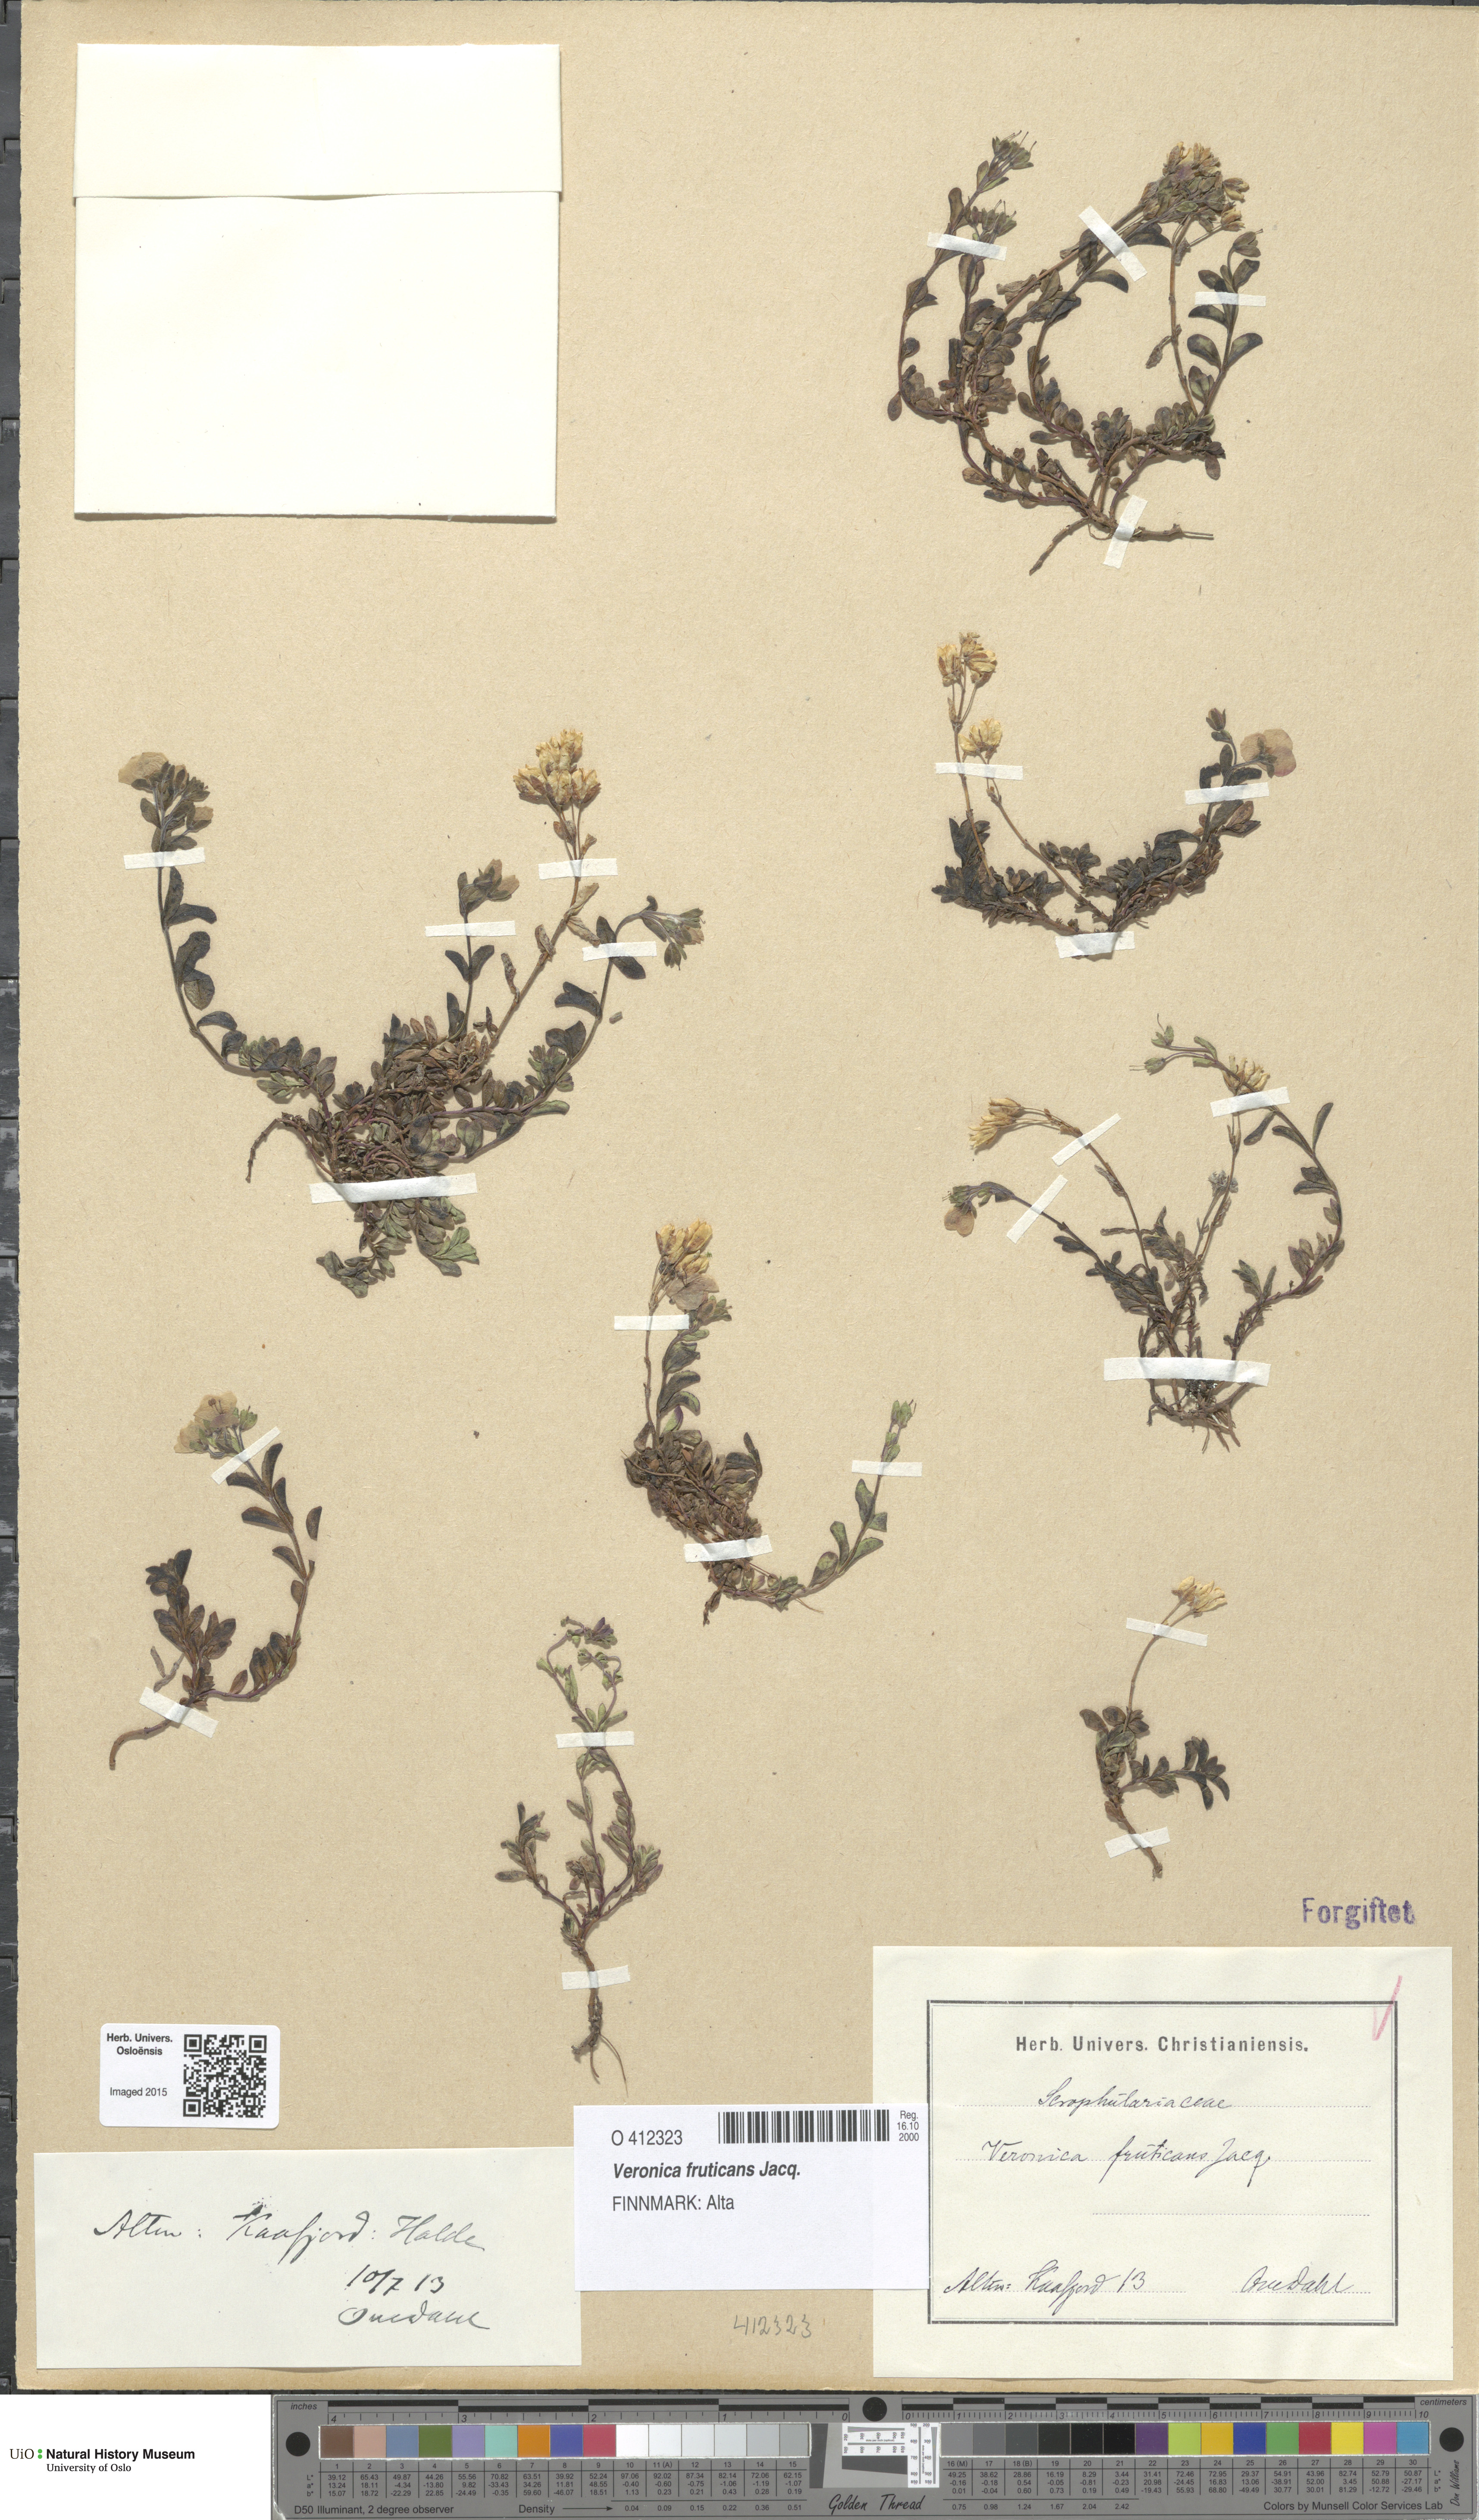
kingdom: Plantae
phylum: Tracheophyta
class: Magnoliopsida
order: Lamiales
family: Plantaginaceae
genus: Veronica
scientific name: Veronica fruticans
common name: Rock speedwell
